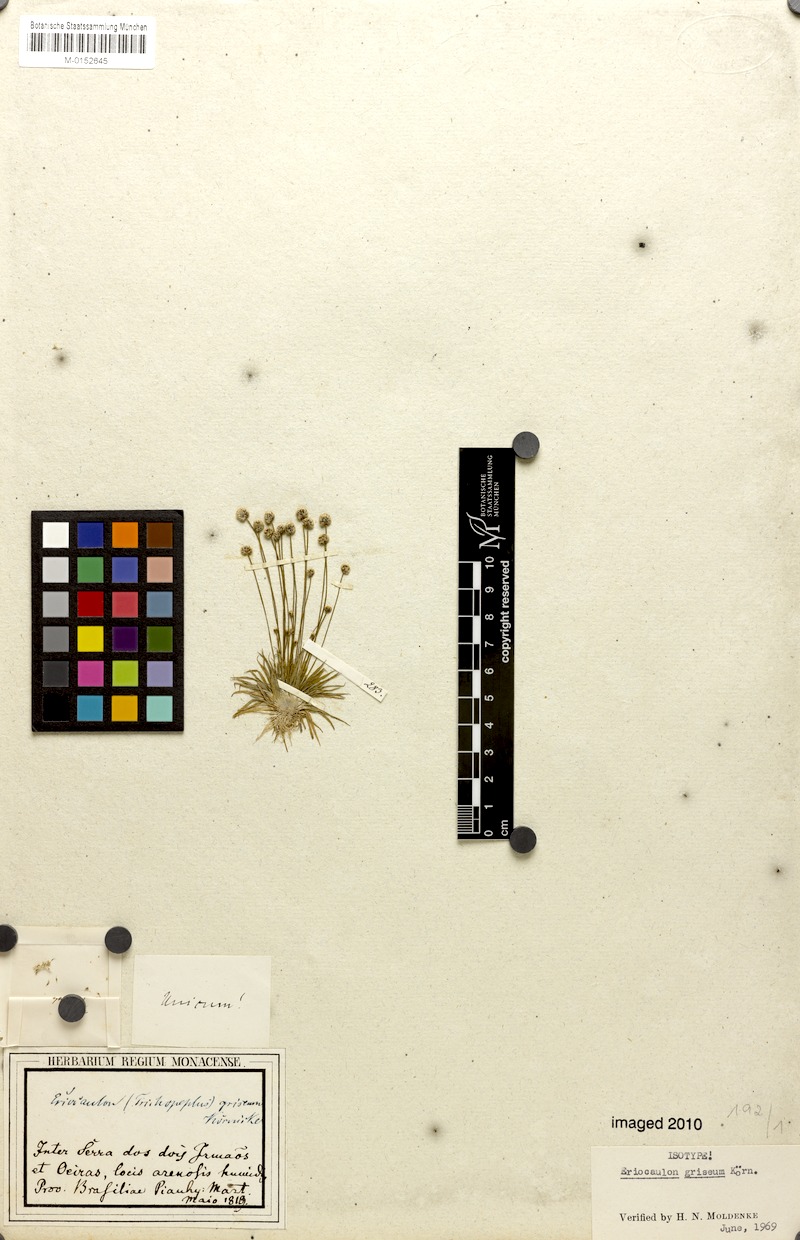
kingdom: Plantae
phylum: Tracheophyta
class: Liliopsida
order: Poales
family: Eriocaulaceae
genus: Eriocaulon
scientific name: Eriocaulon griseum
